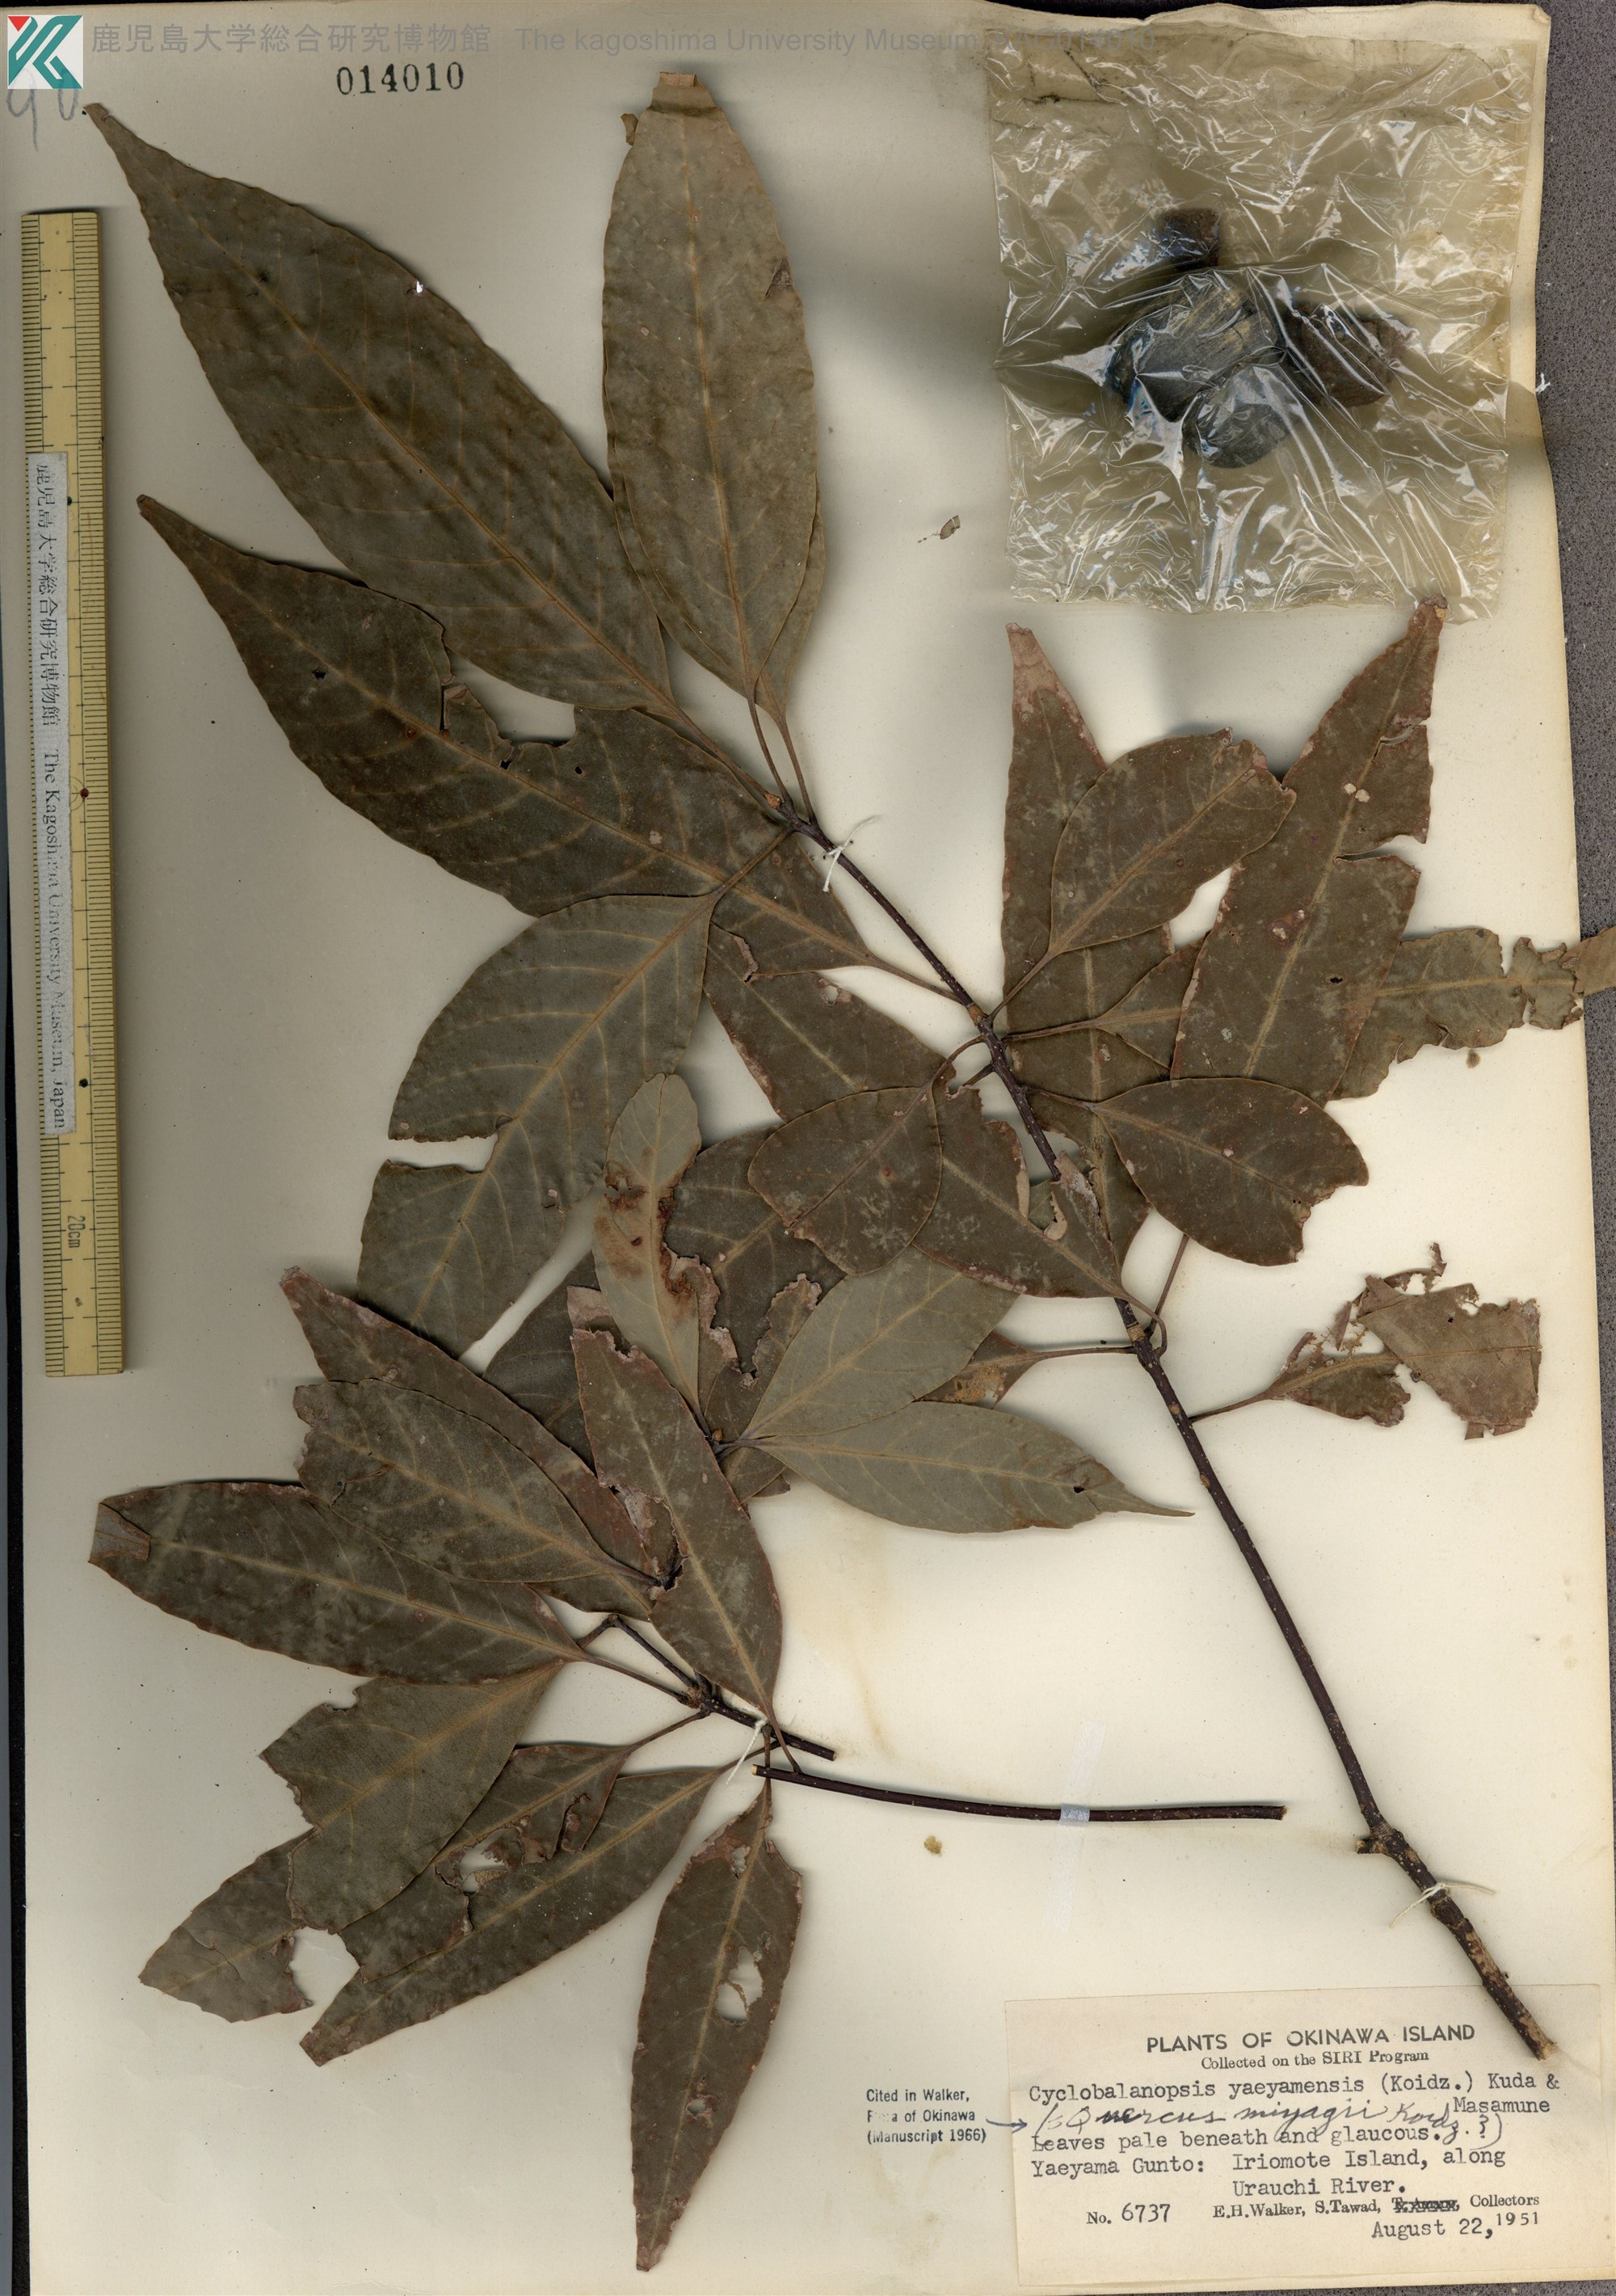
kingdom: Plantae
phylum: Tracheophyta
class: Magnoliopsida
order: Fagales
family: Fagaceae
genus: Quercus
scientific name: Quercus miyagii
